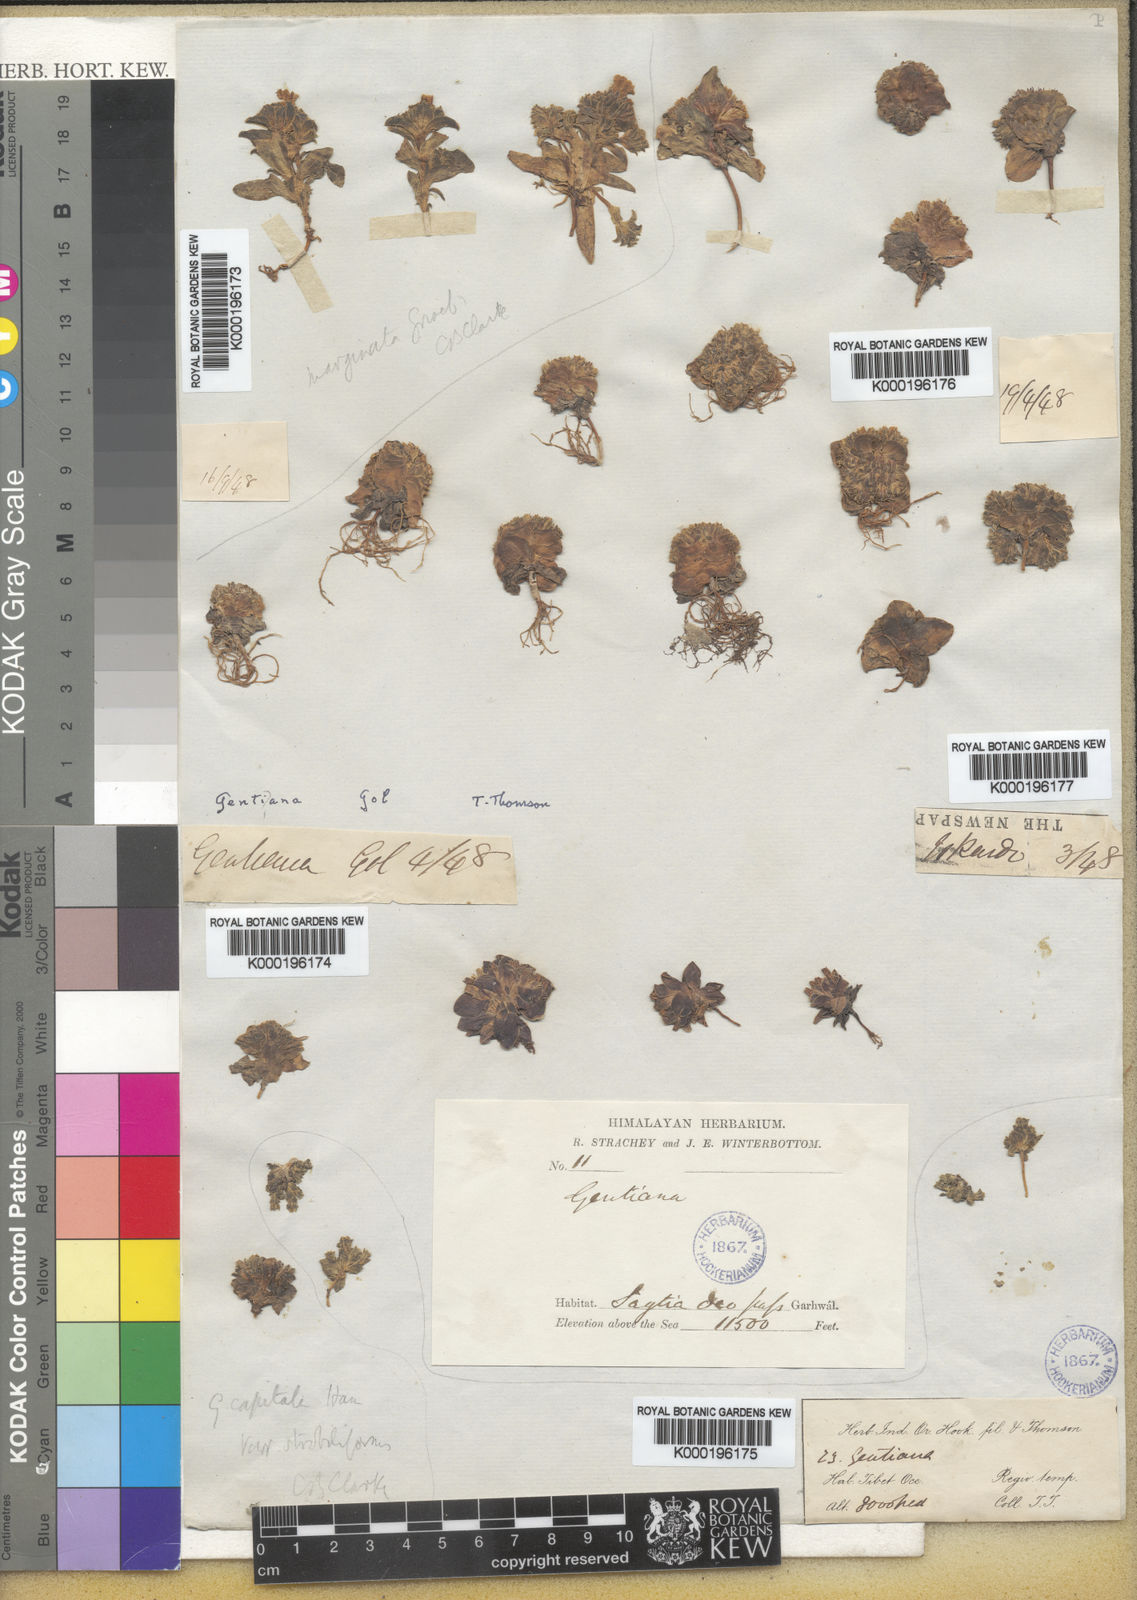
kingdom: Plantae
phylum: Tracheophyta
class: Magnoliopsida
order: Gentianales
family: Gentianaceae
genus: Gentiana
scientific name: Gentiana capitata
